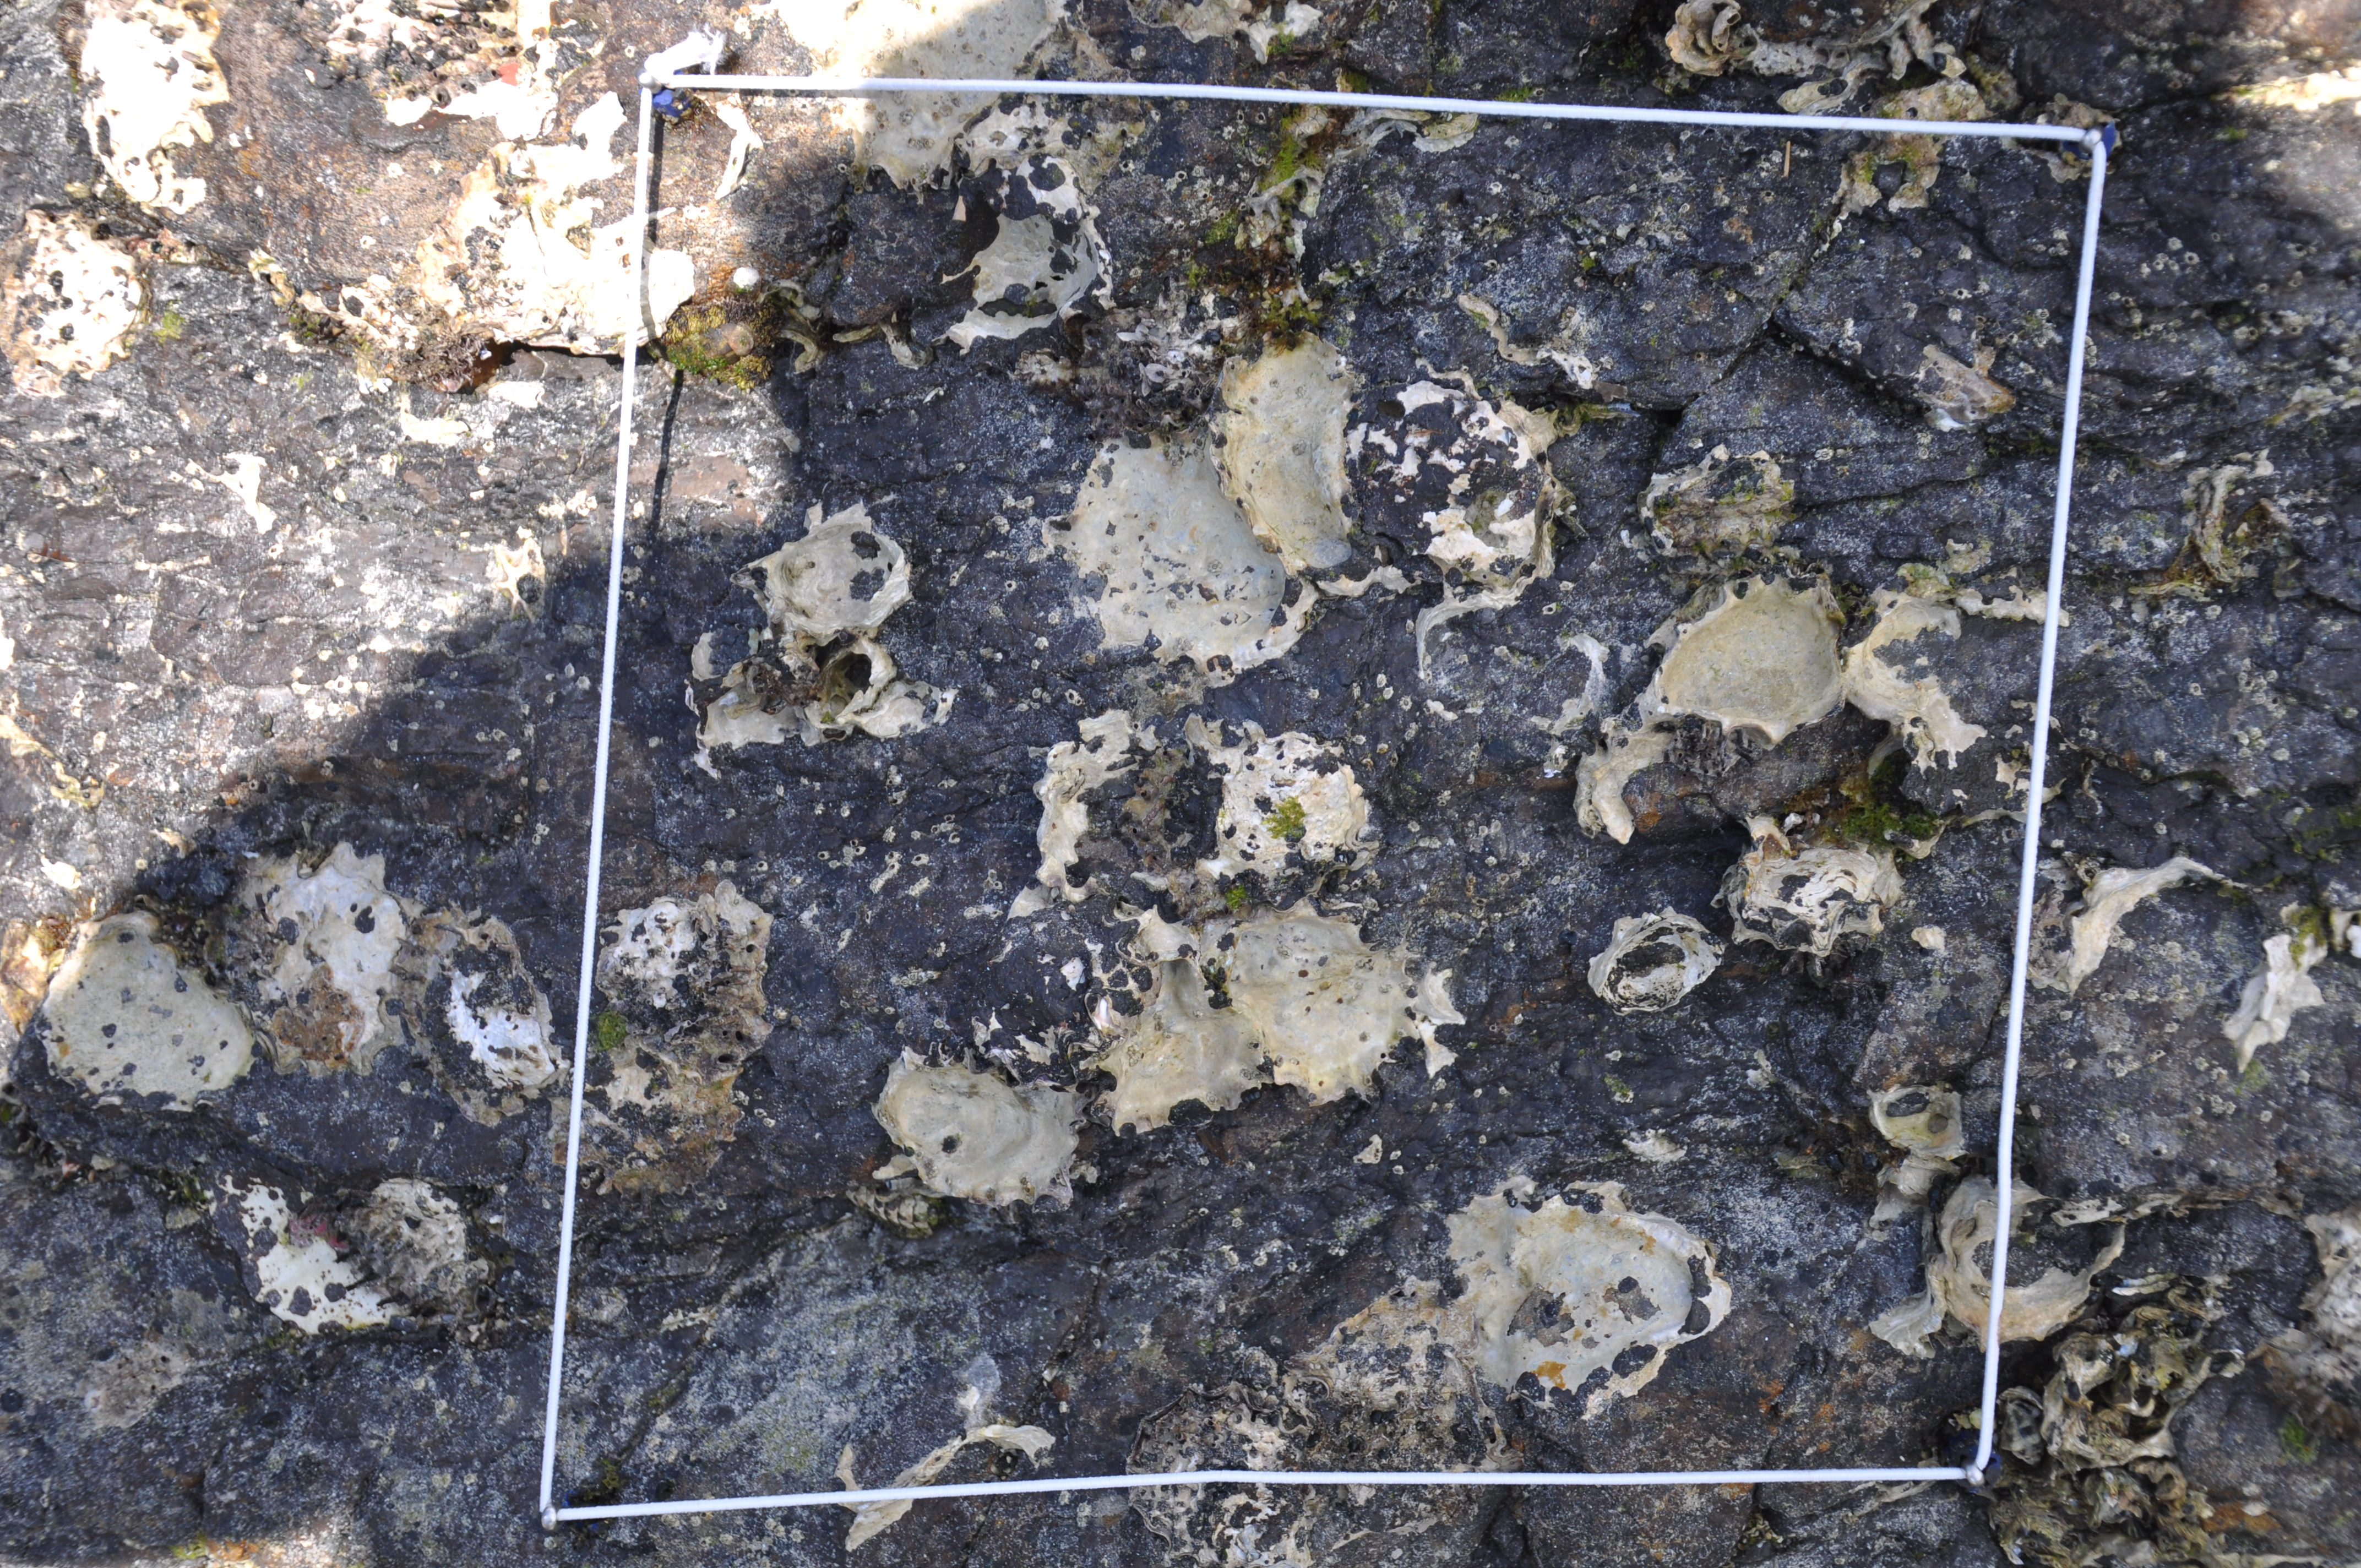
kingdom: Animalia
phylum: Arthropoda
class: Maxillopoda
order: Sessilia
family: Chthamalidae
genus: Chthamalus
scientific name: Chthamalus challengeri
